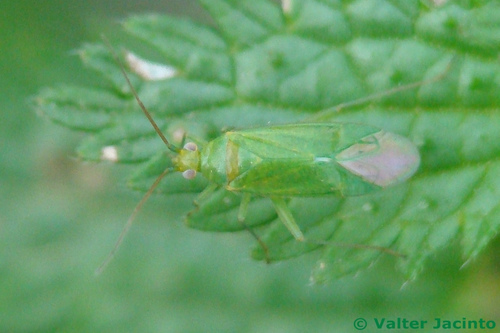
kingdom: Animalia
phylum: Arthropoda
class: Insecta
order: Hemiptera
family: Miridae
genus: Orthotylus
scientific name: Orthotylus
